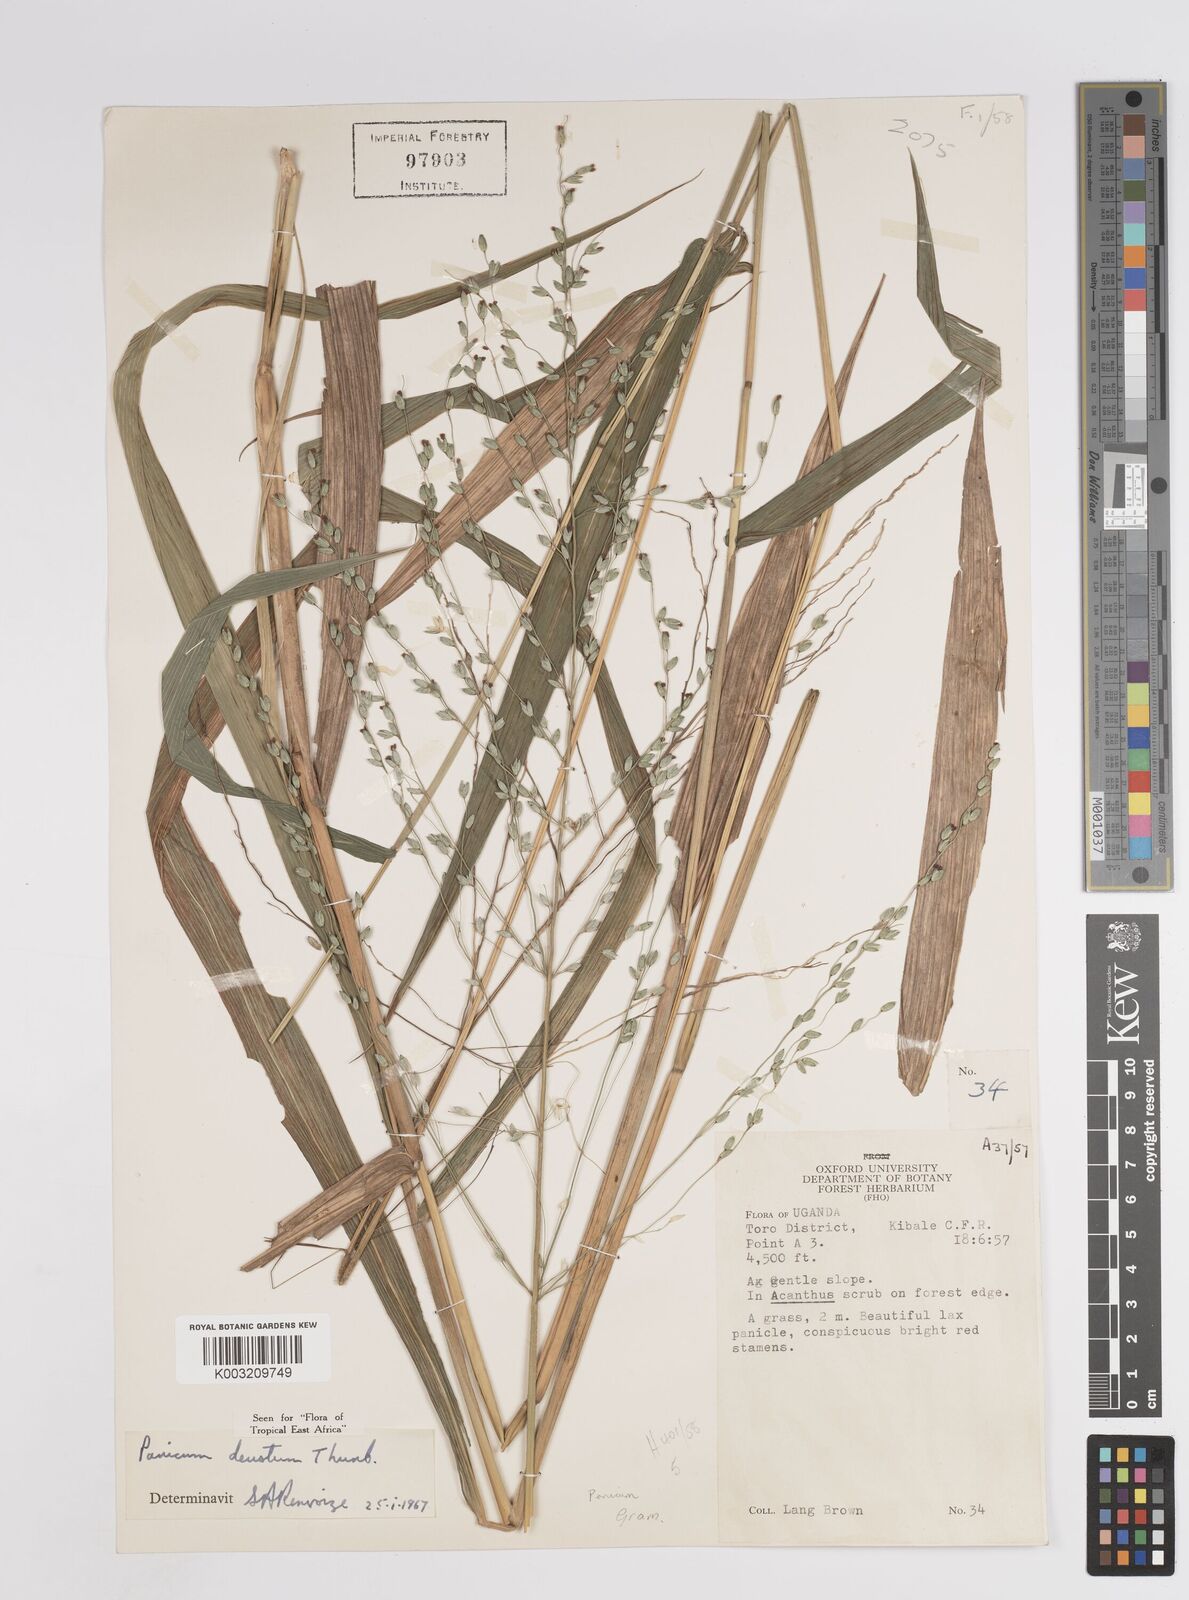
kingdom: Plantae
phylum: Tracheophyta
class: Liliopsida
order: Poales
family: Poaceae
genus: Panicum
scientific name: Panicum
